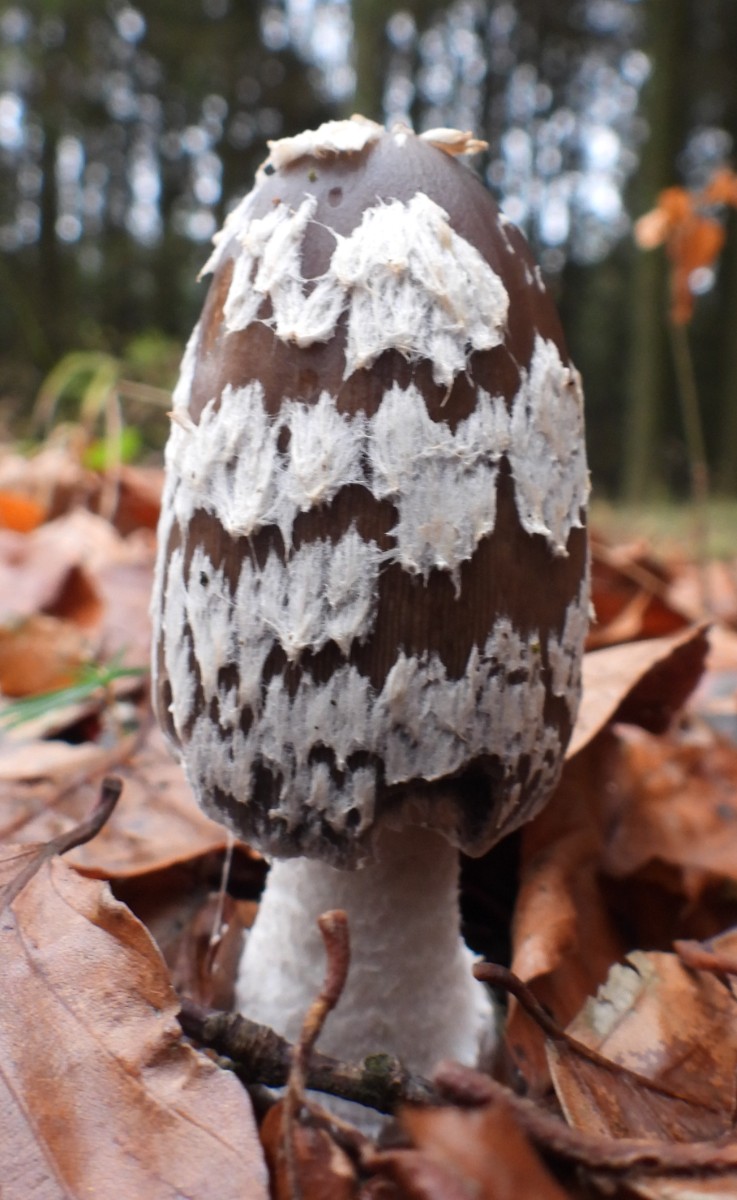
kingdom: Fungi
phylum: Basidiomycota
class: Agaricomycetes
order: Agaricales
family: Psathyrellaceae
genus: Coprinopsis
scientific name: Coprinopsis picacea
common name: skade-blækhat
